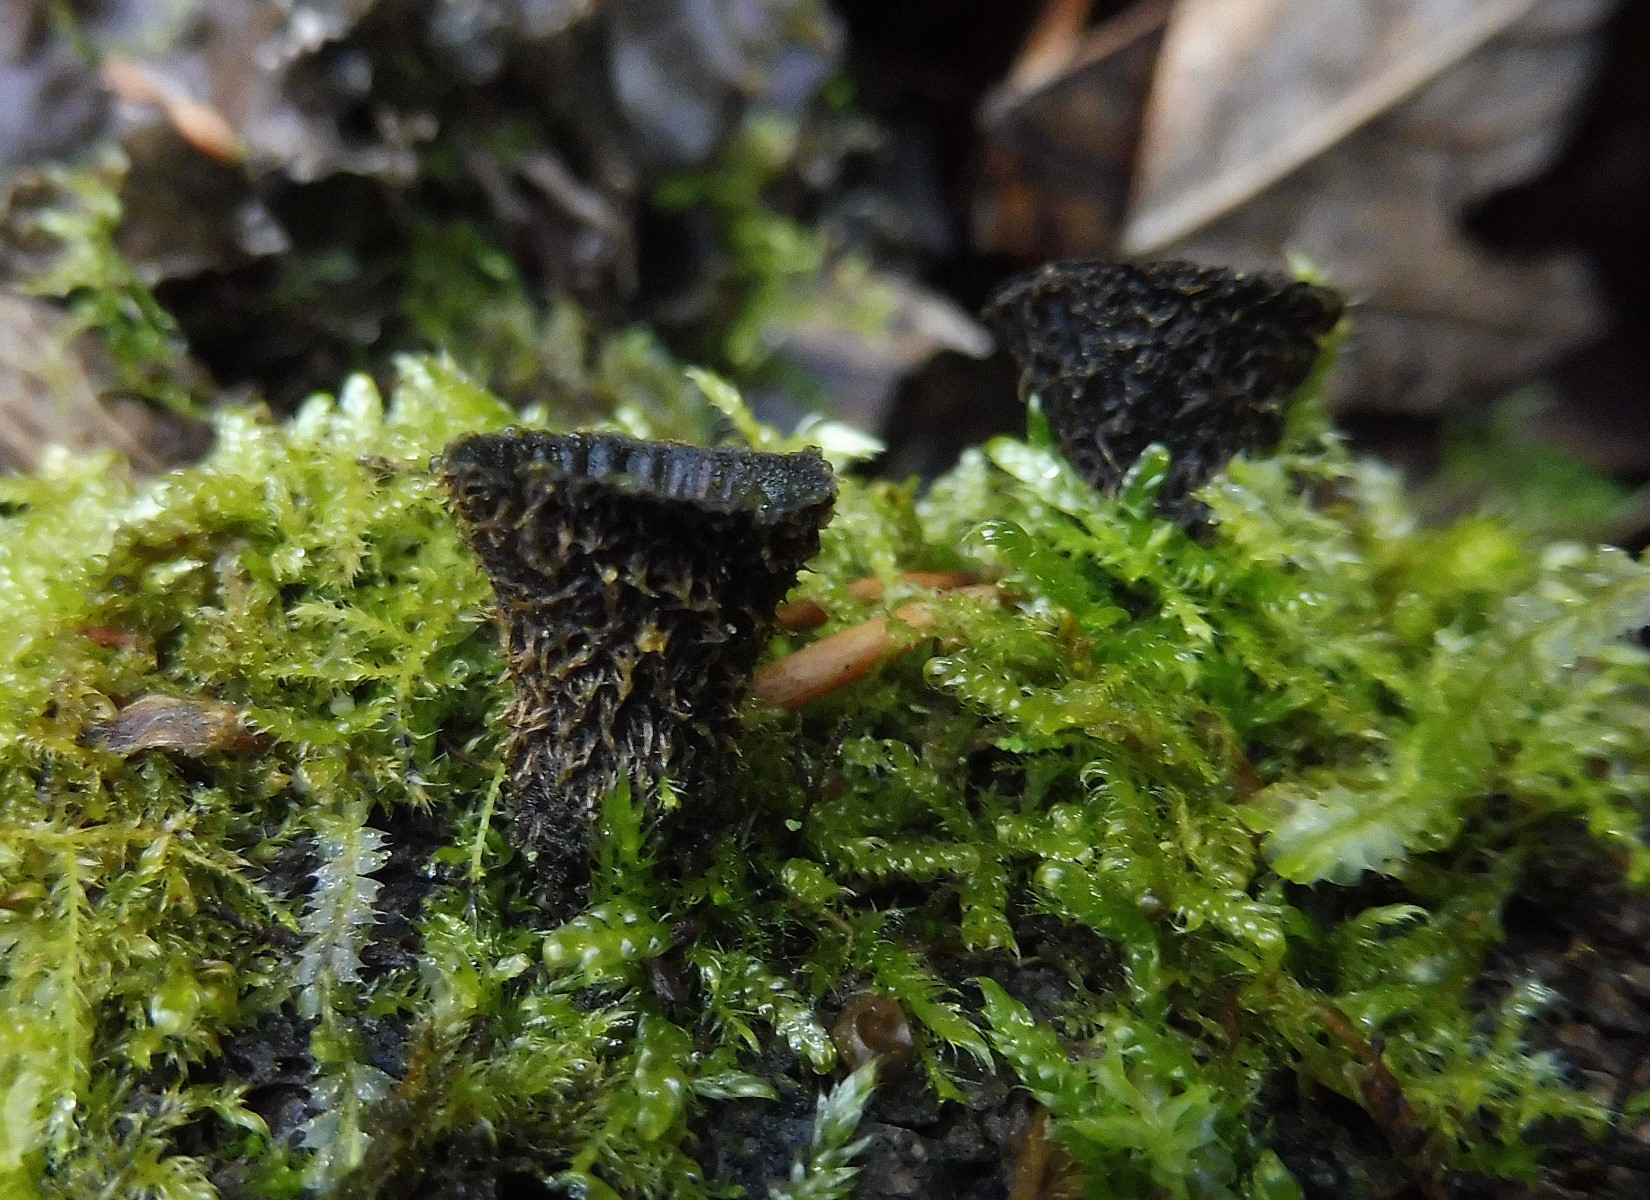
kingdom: Fungi
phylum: Basidiomycota
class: Agaricomycetes
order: Agaricales
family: Agaricaceae
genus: Cyathus
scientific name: Cyathus striatus
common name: stribet redesvamp
